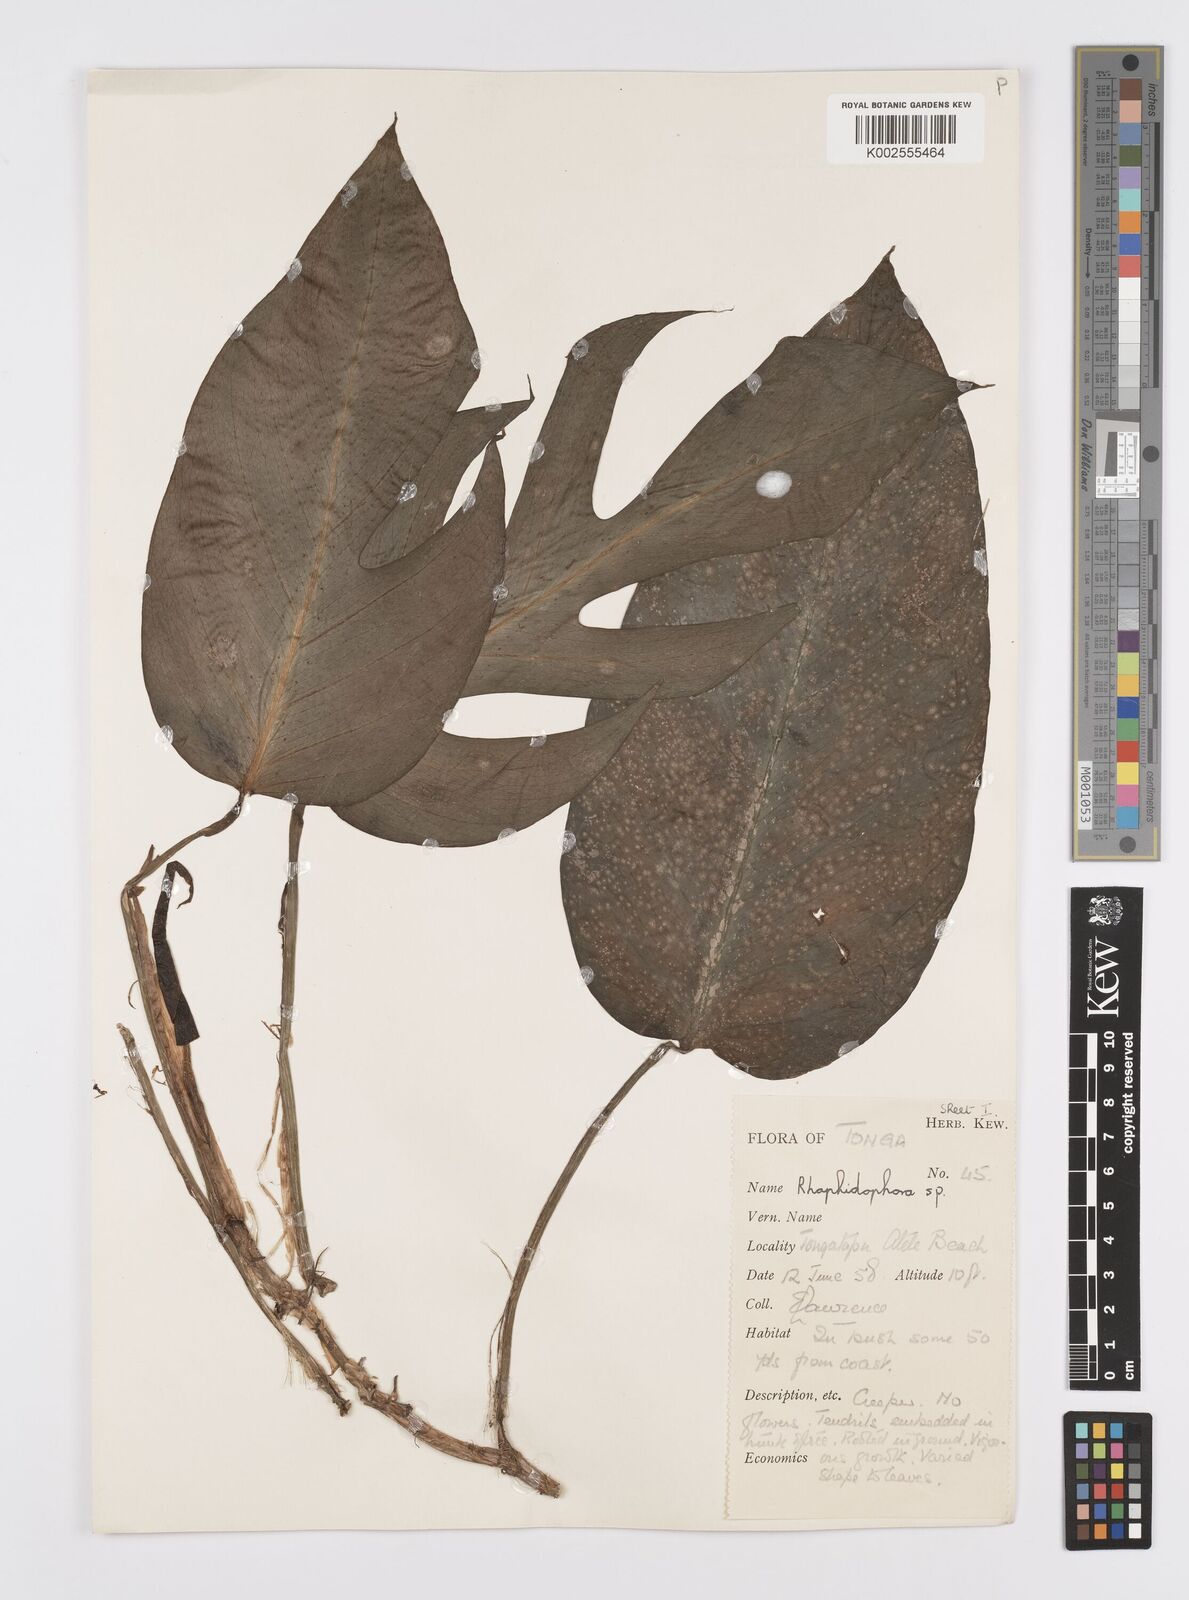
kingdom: Plantae
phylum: Tracheophyta
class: Liliopsida
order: Alismatales
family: Araceae
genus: Epipremnum
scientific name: Epipremnum pinnatum
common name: Centipede tongavine
